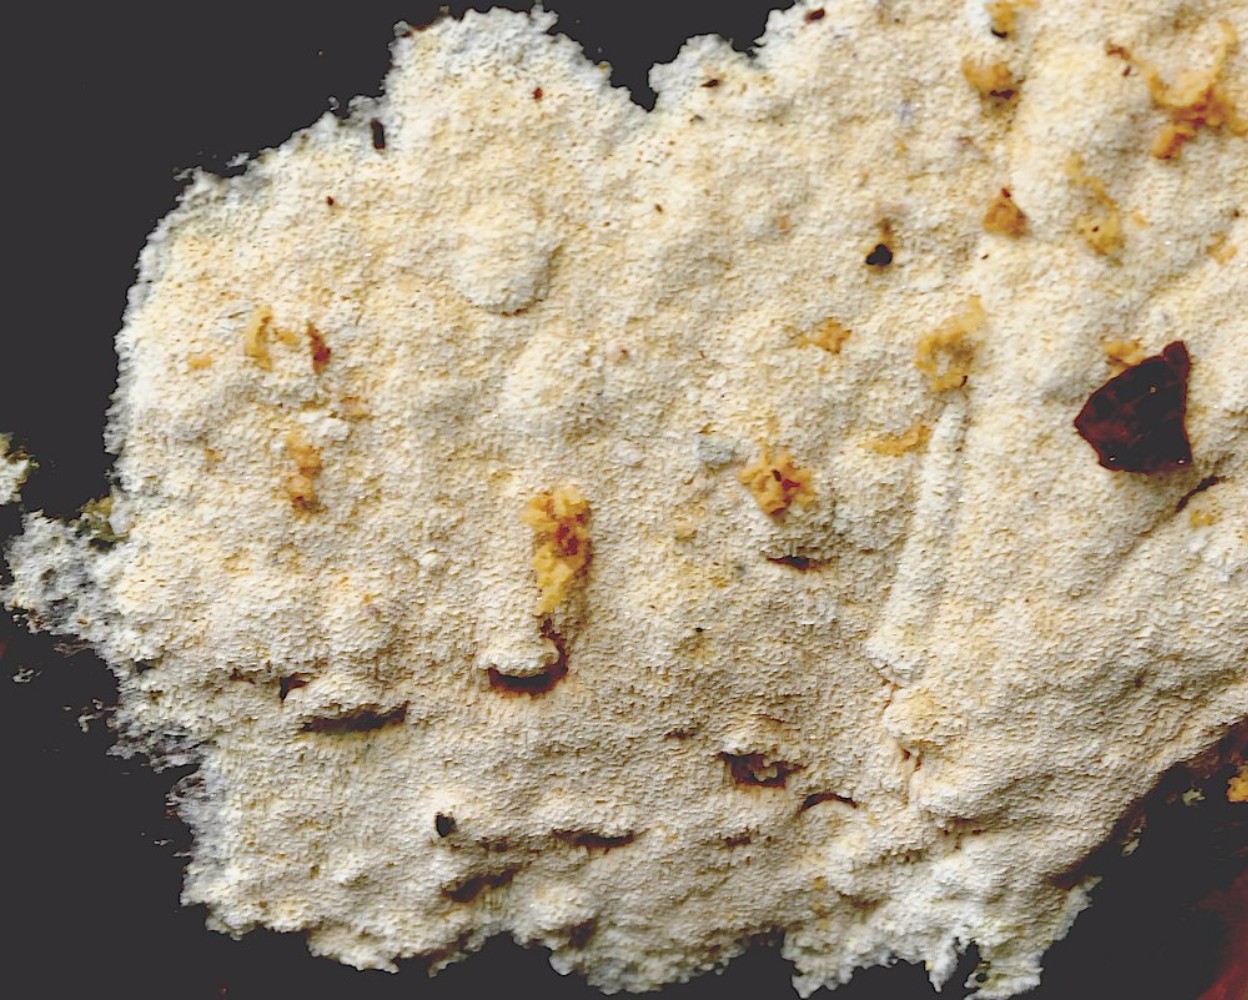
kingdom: Fungi
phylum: Basidiomycota
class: Agaricomycetes
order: Polyporales
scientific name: Polyporales
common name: poresvampordenen
